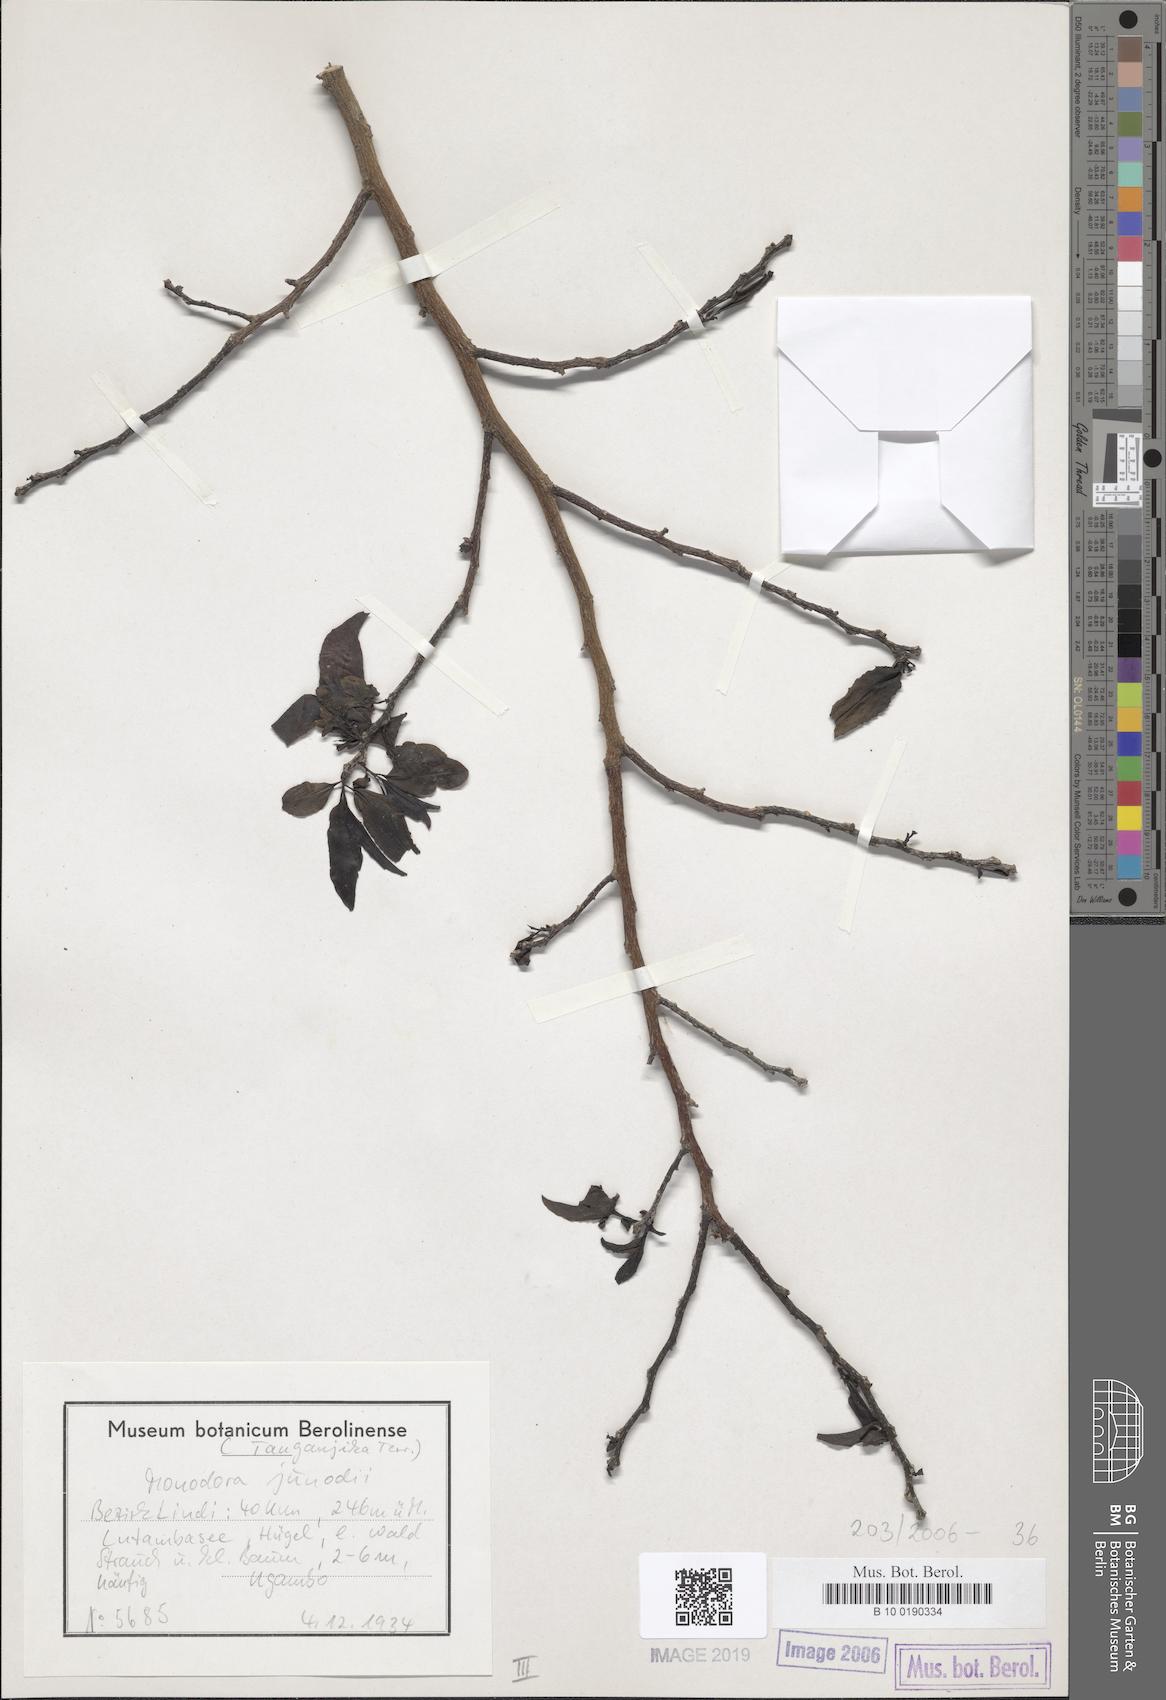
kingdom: Plantae
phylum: Tracheophyta
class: Magnoliopsida
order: Magnoliales
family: Annonaceae
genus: Monodora
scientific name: Monodora junodii
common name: Green-apple
